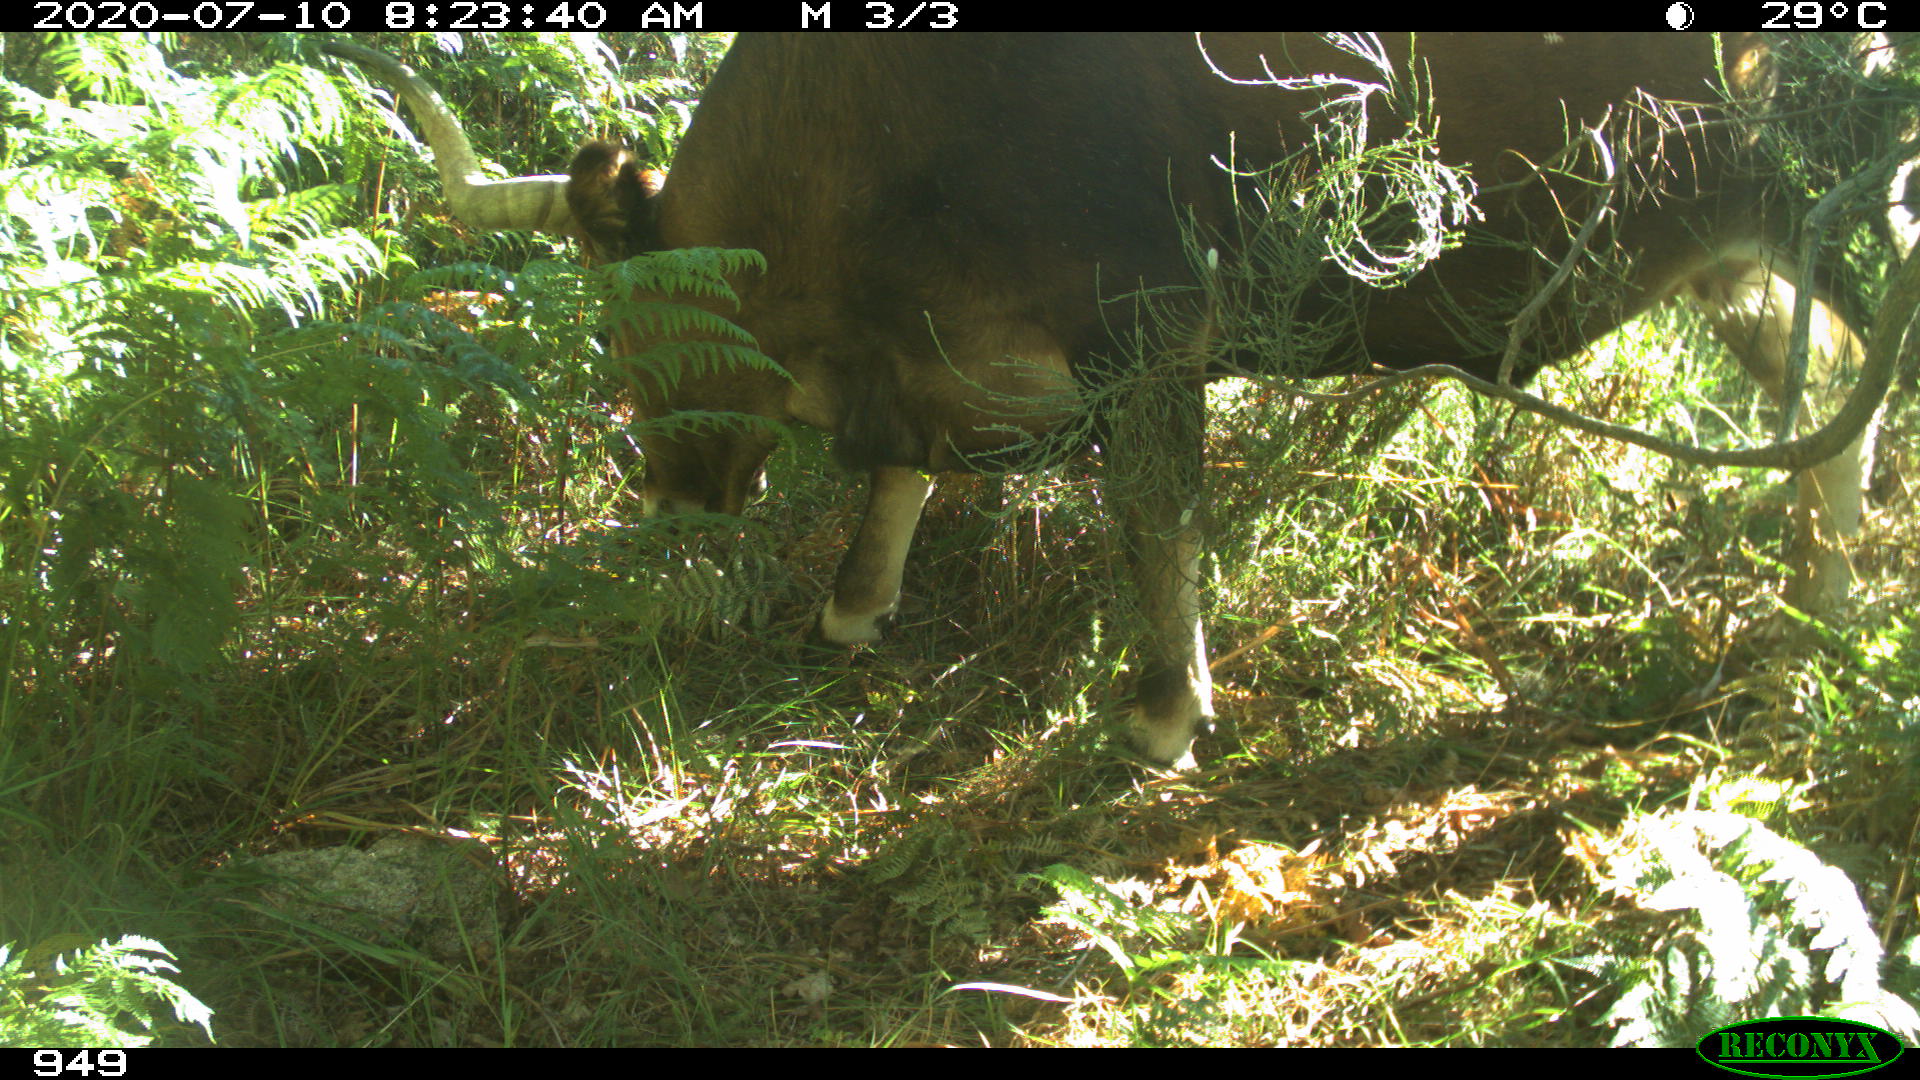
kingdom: Animalia
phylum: Chordata
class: Mammalia
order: Artiodactyla
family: Bovidae
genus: Bos
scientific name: Bos taurus
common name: Domesticated cattle
